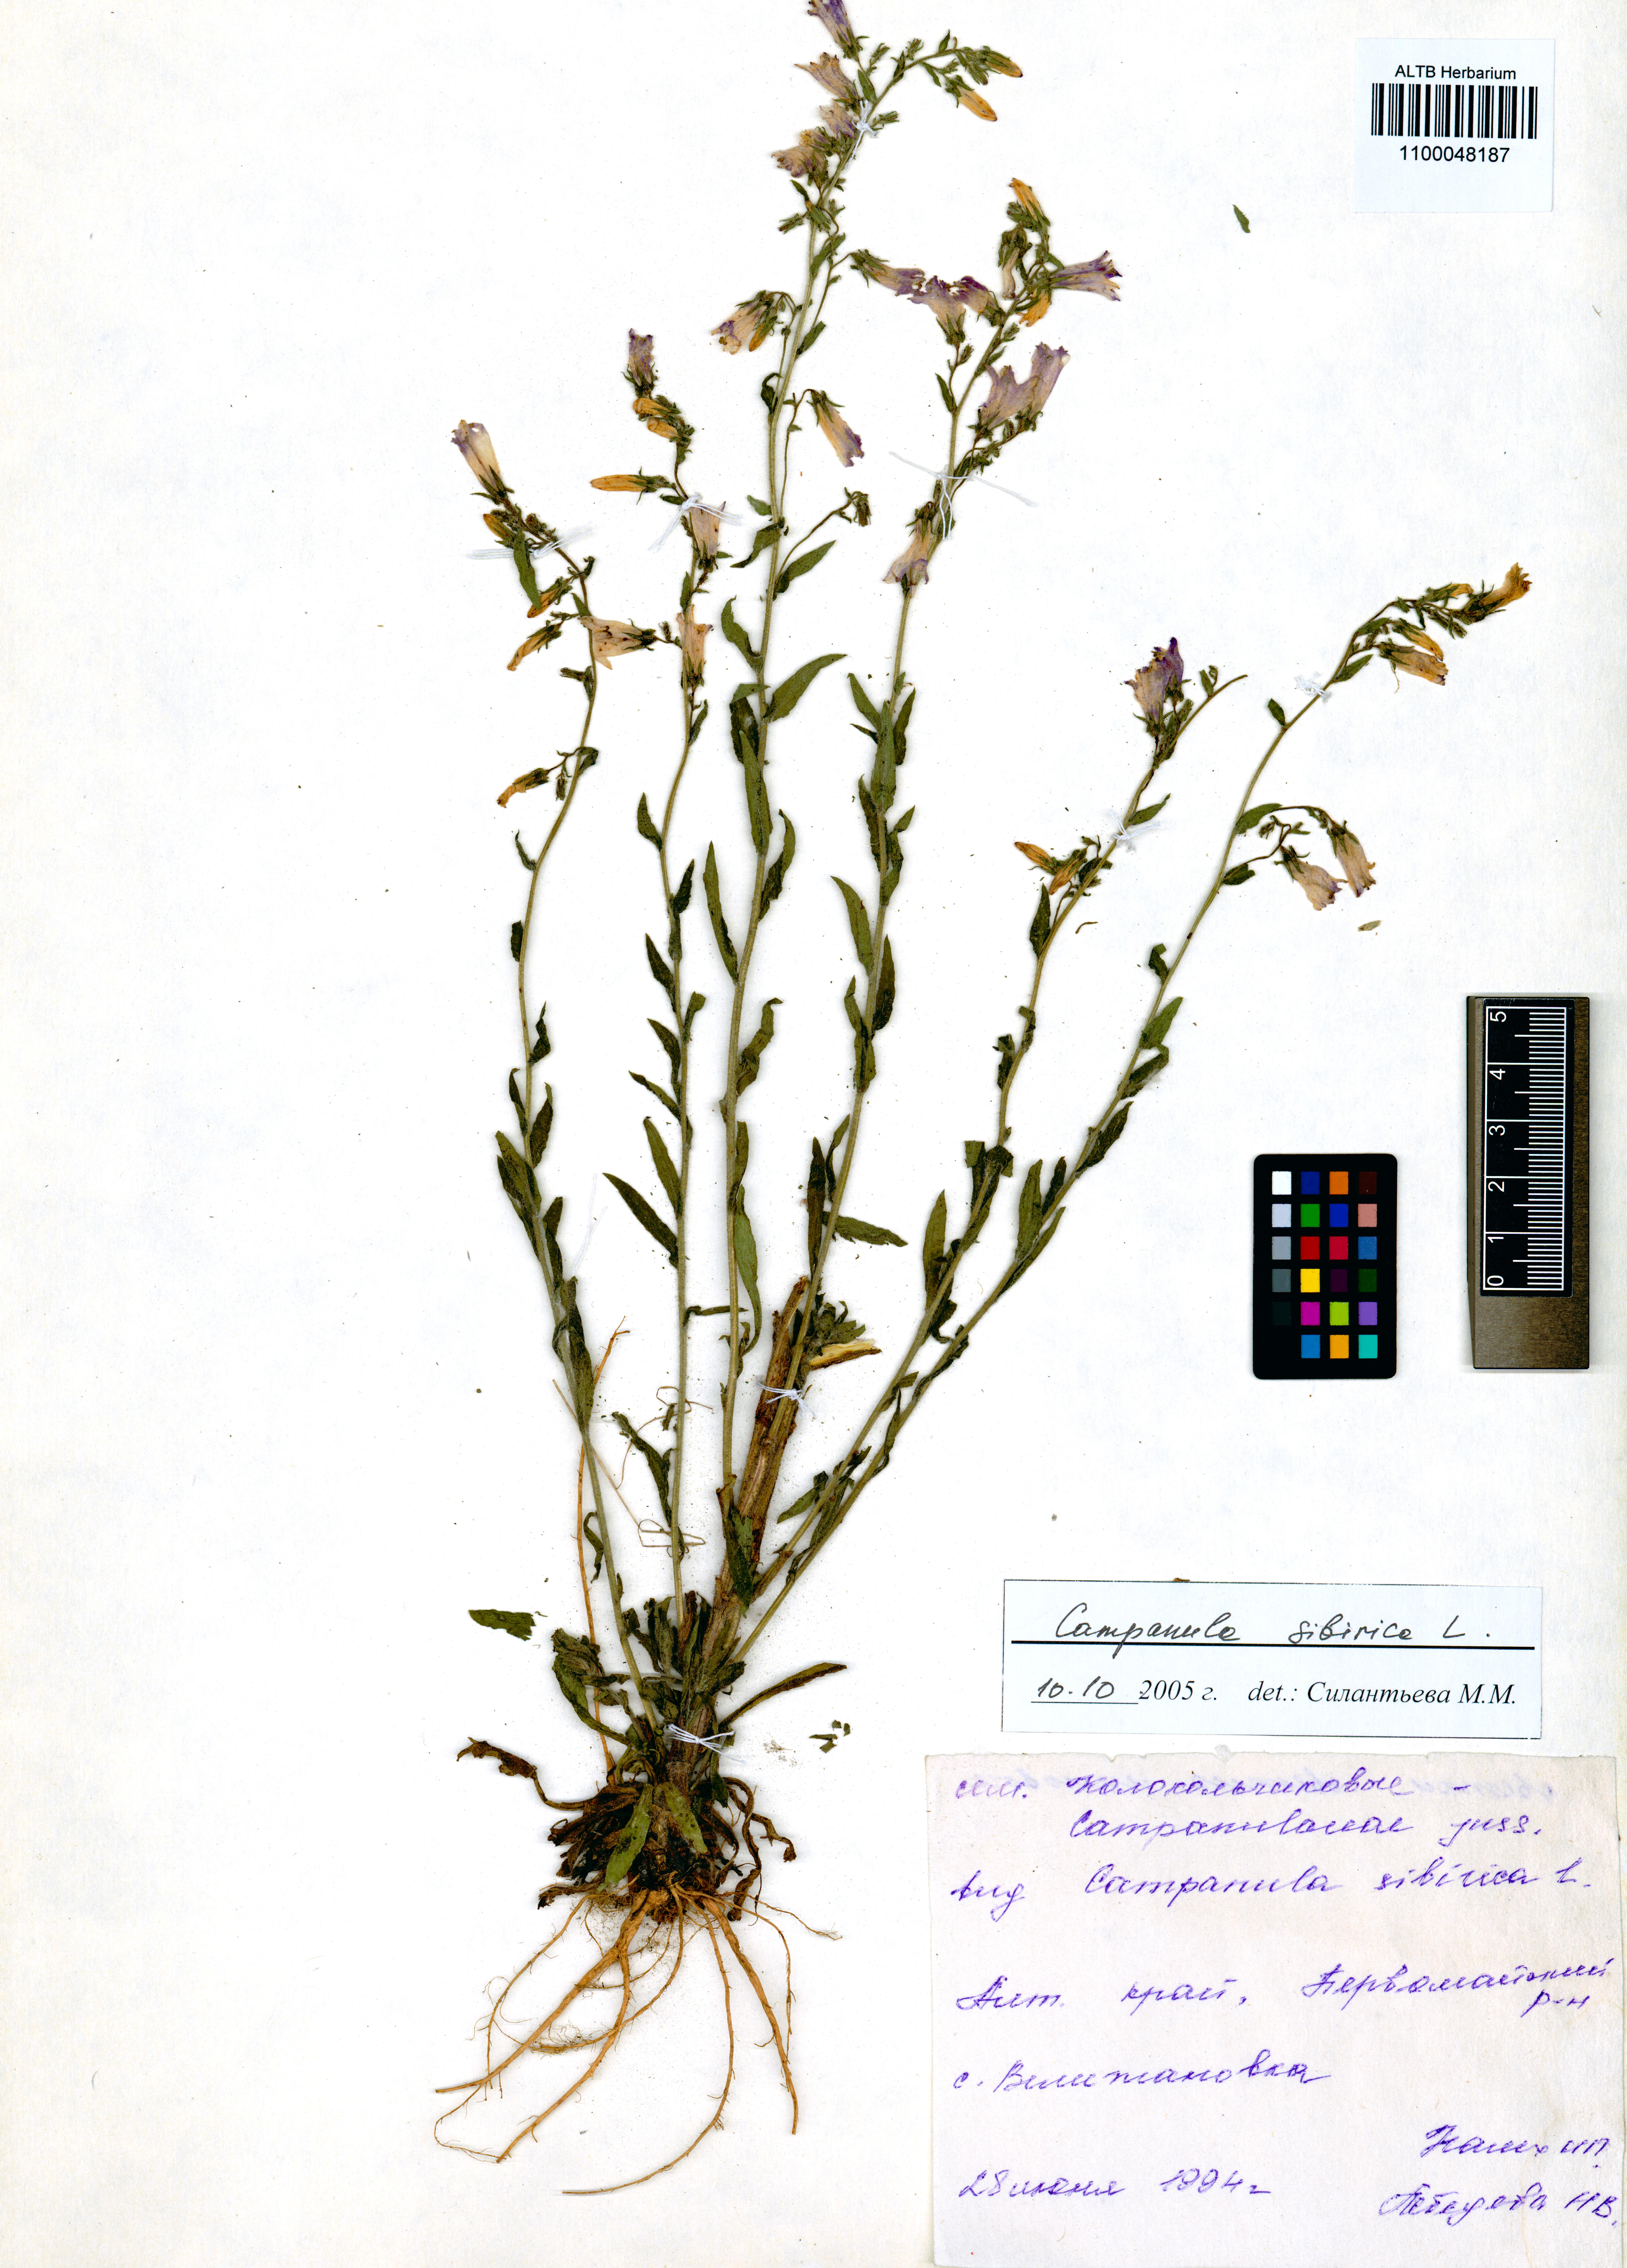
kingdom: Plantae
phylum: Tracheophyta
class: Magnoliopsida
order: Asterales
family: Campanulaceae
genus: Campanula
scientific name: Campanula sibirica
